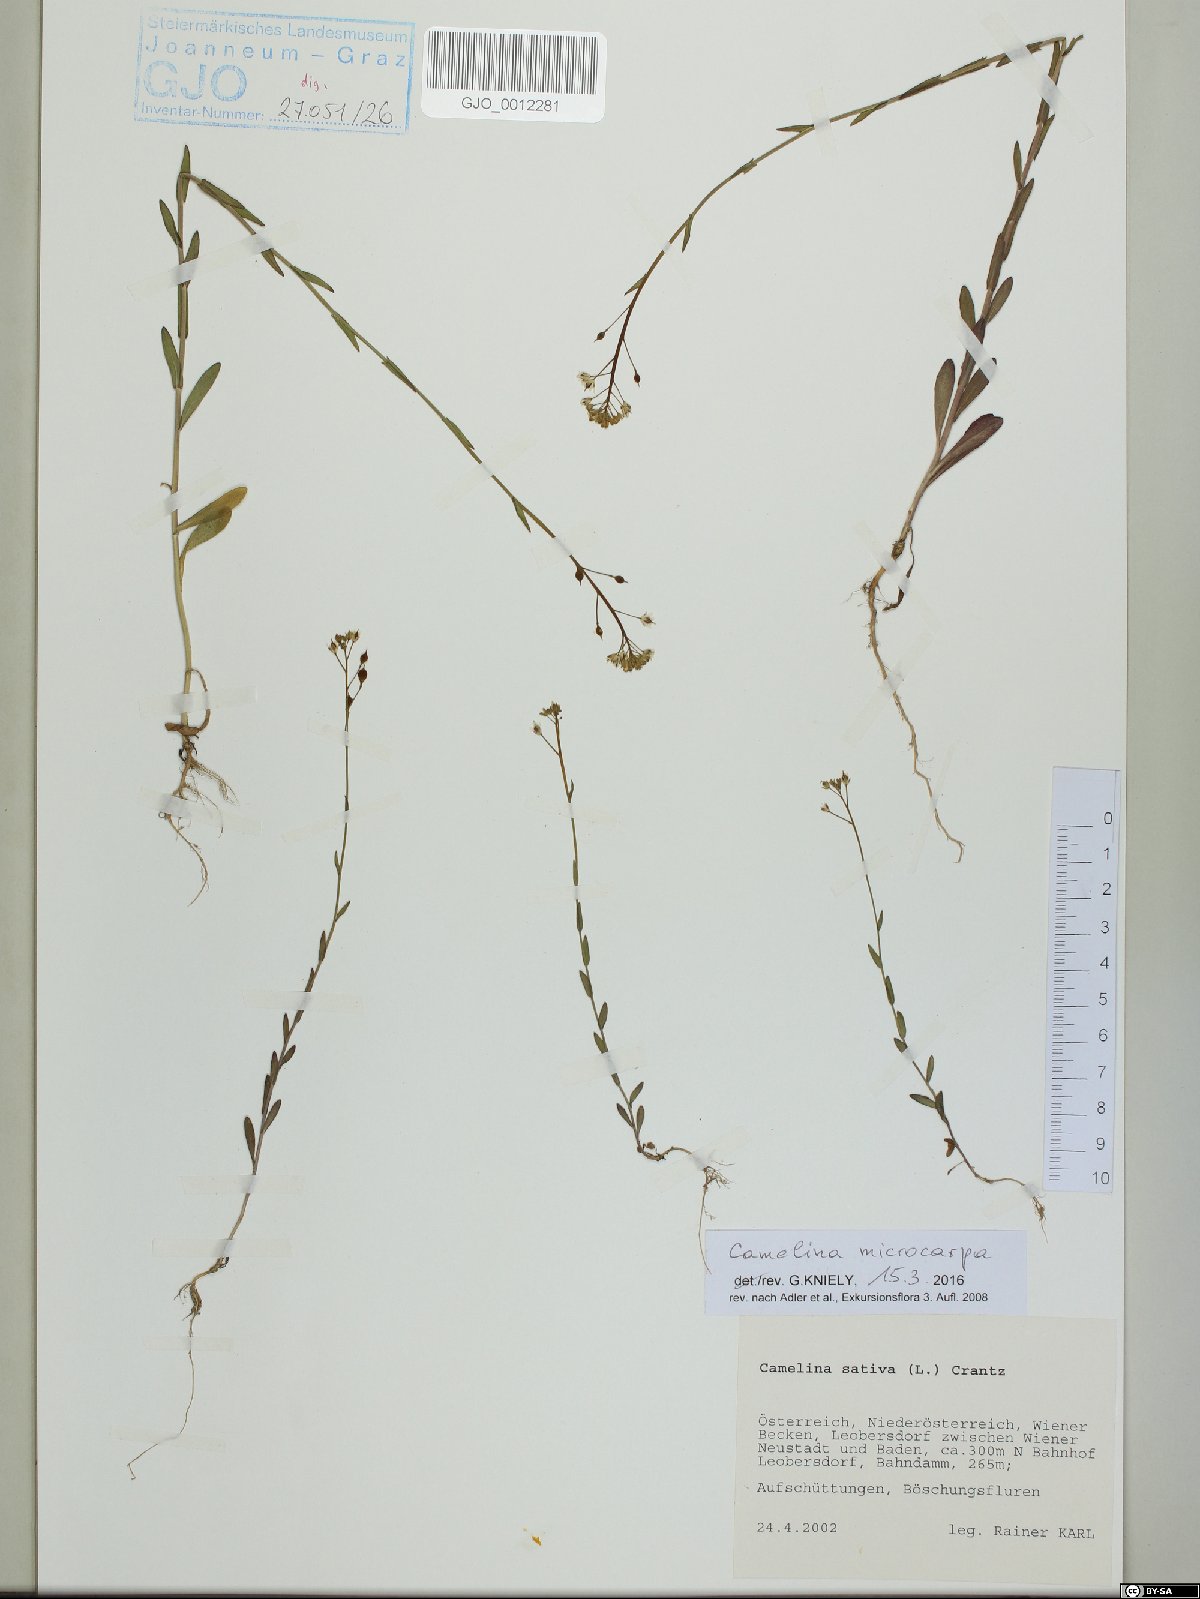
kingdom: Plantae
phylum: Tracheophyta
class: Magnoliopsida
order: Brassicales
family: Brassicaceae
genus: Camelina
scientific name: Camelina microcarpa
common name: Lesser gold-of-pleasure
